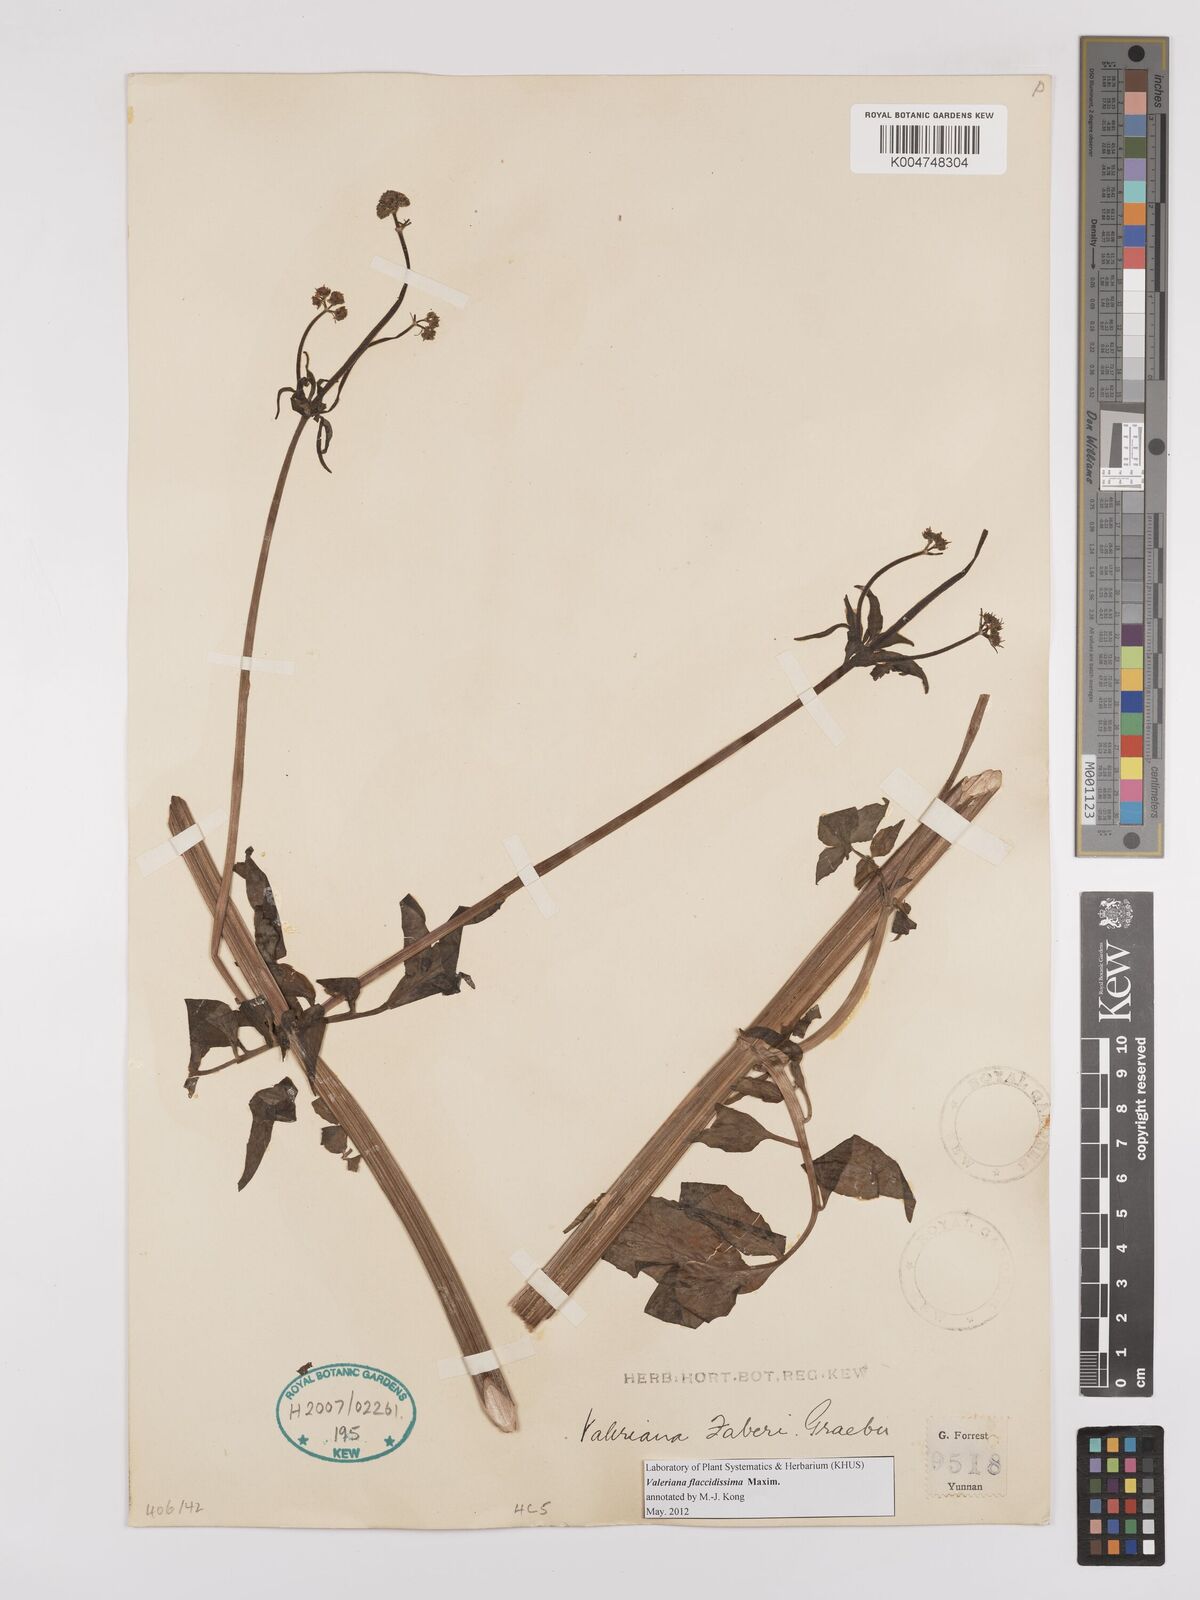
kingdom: Plantae
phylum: Tracheophyta
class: Magnoliopsida
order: Dipsacales
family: Caprifoliaceae
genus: Valeriana
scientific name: Valeriana flaccidissima
